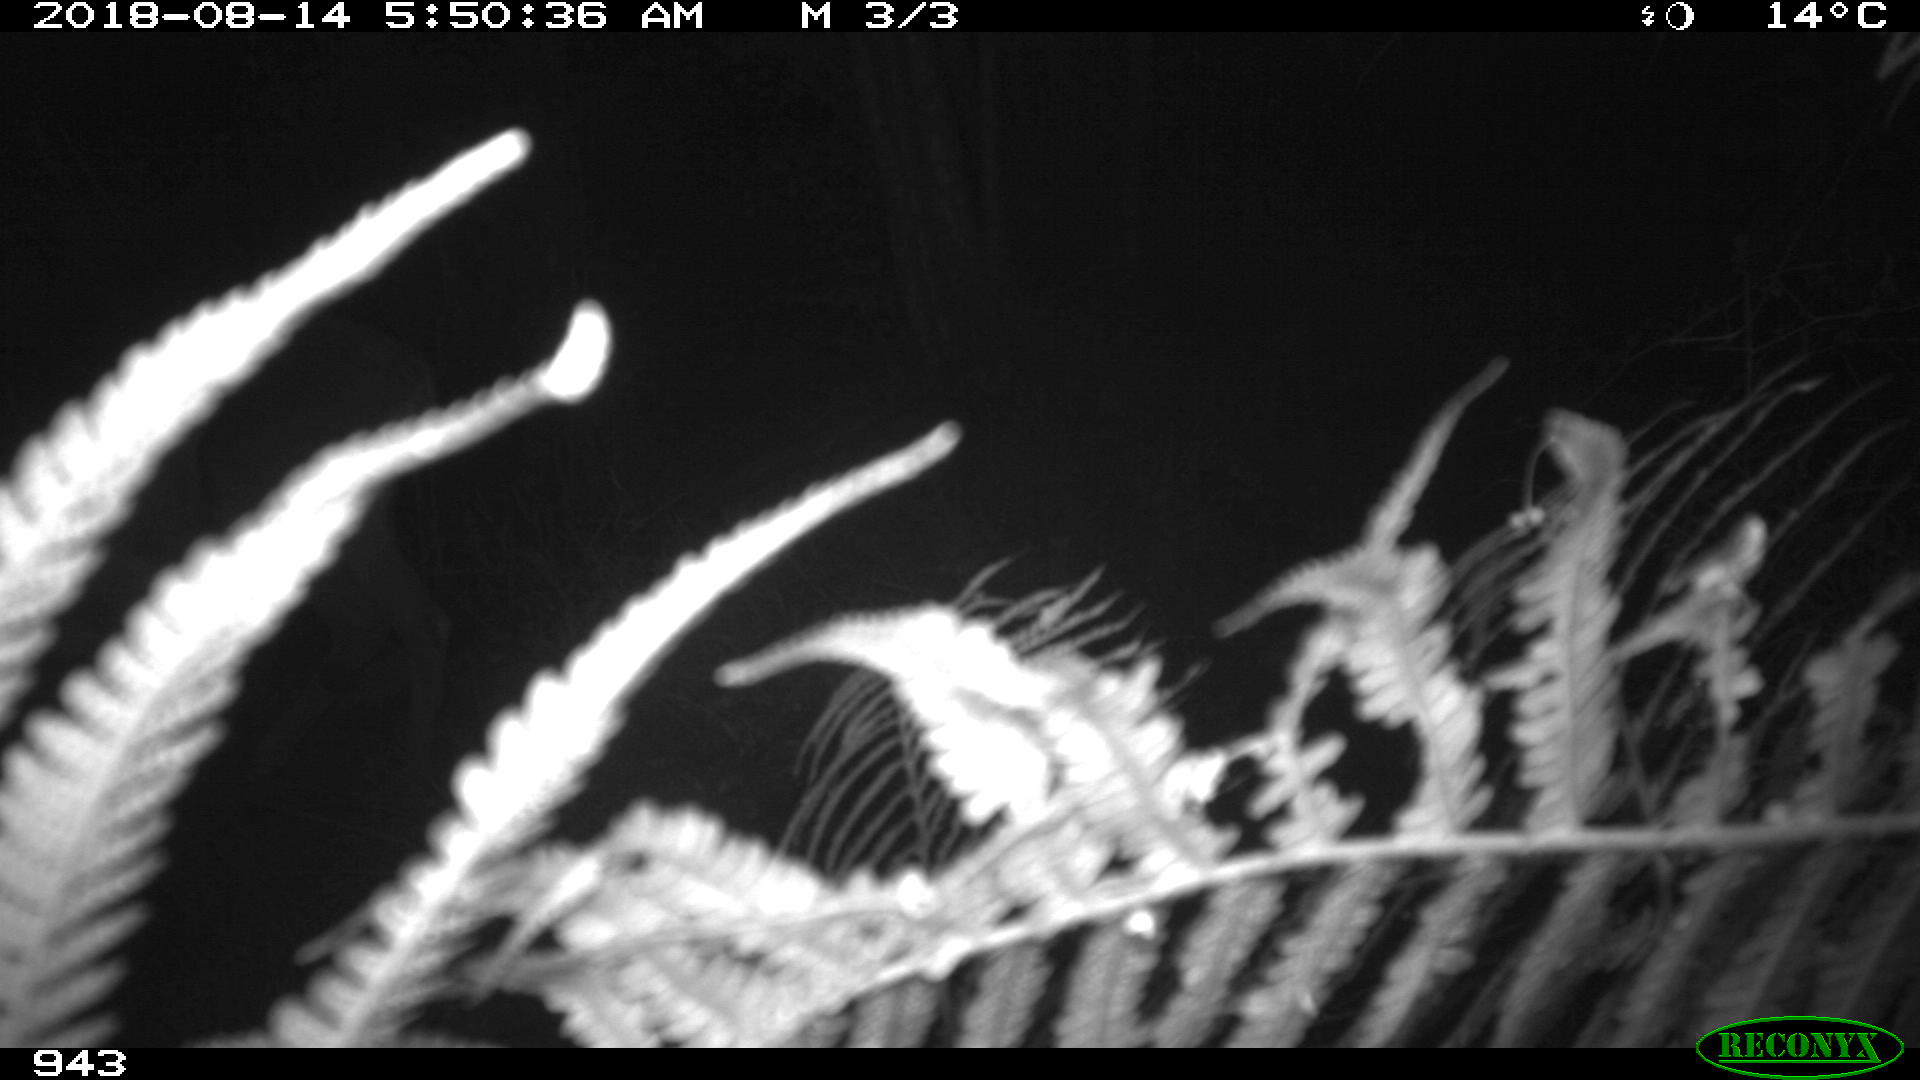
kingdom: Animalia
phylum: Chordata
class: Mammalia
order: Artiodactyla
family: Cervidae
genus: Capreolus
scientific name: Capreolus capreolus
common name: Western roe deer
